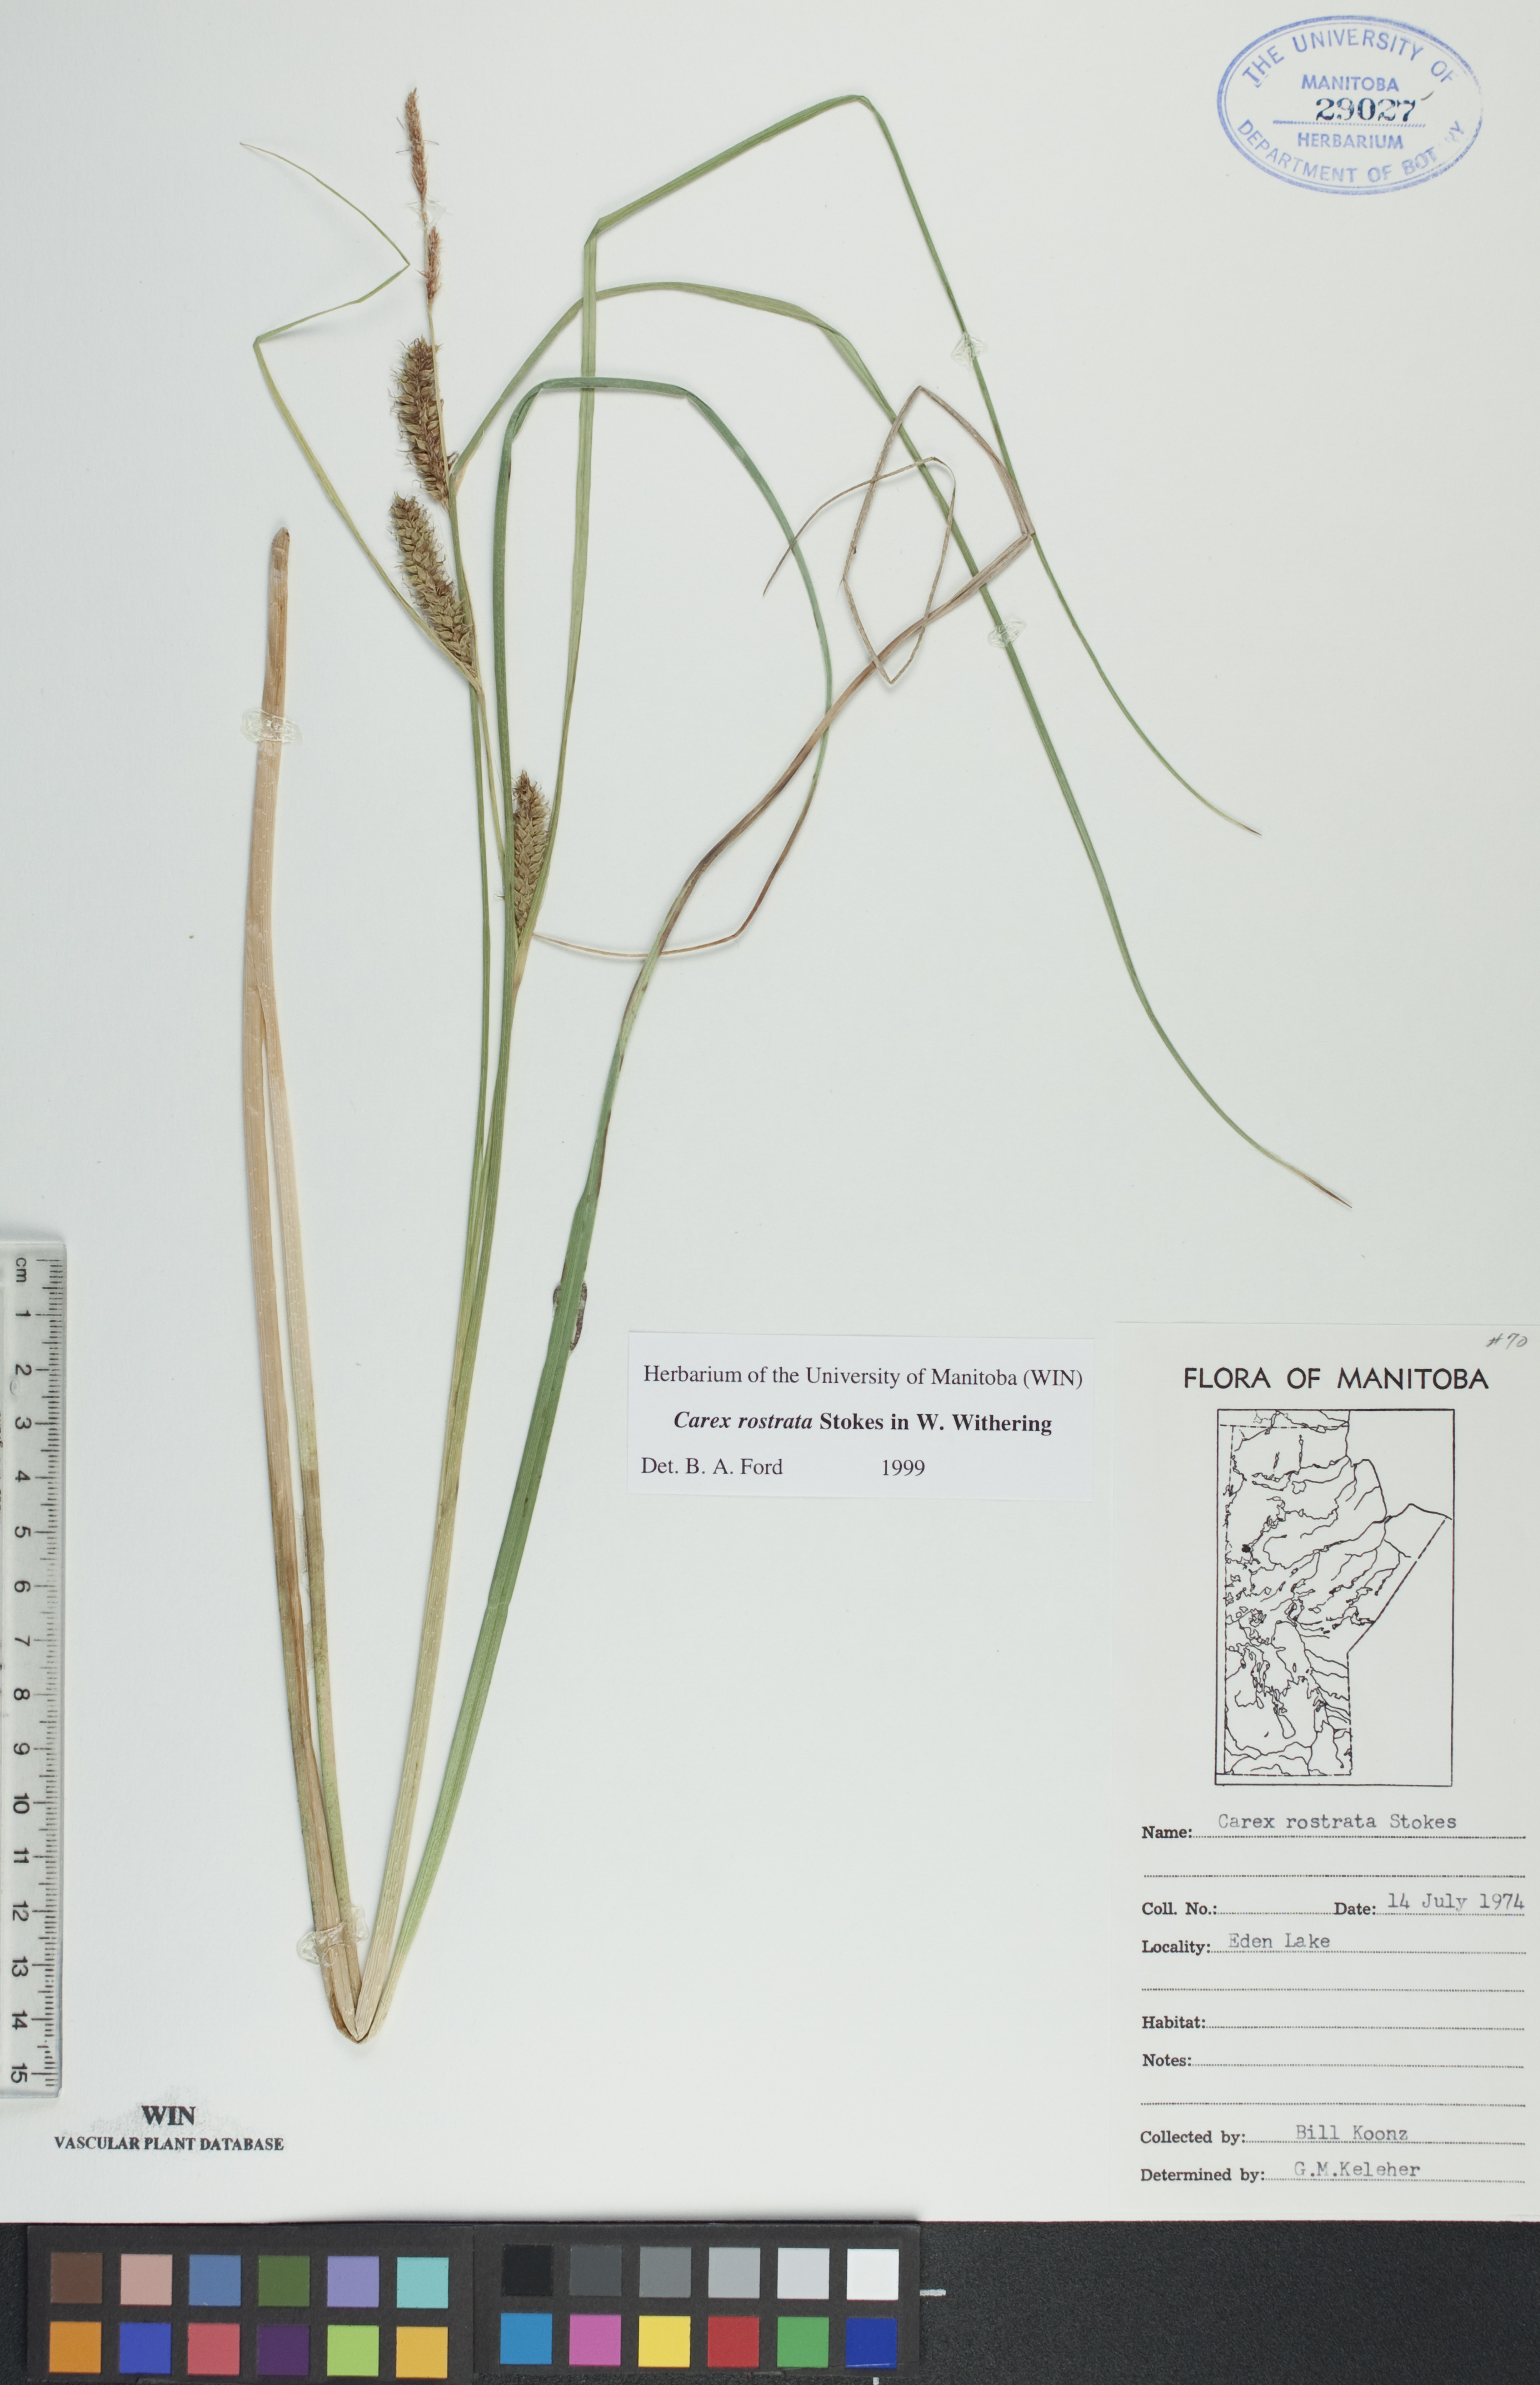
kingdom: Plantae
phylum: Tracheophyta
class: Liliopsida
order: Poales
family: Cyperaceae
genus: Carex
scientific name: Carex rostrata
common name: Bottle sedge
